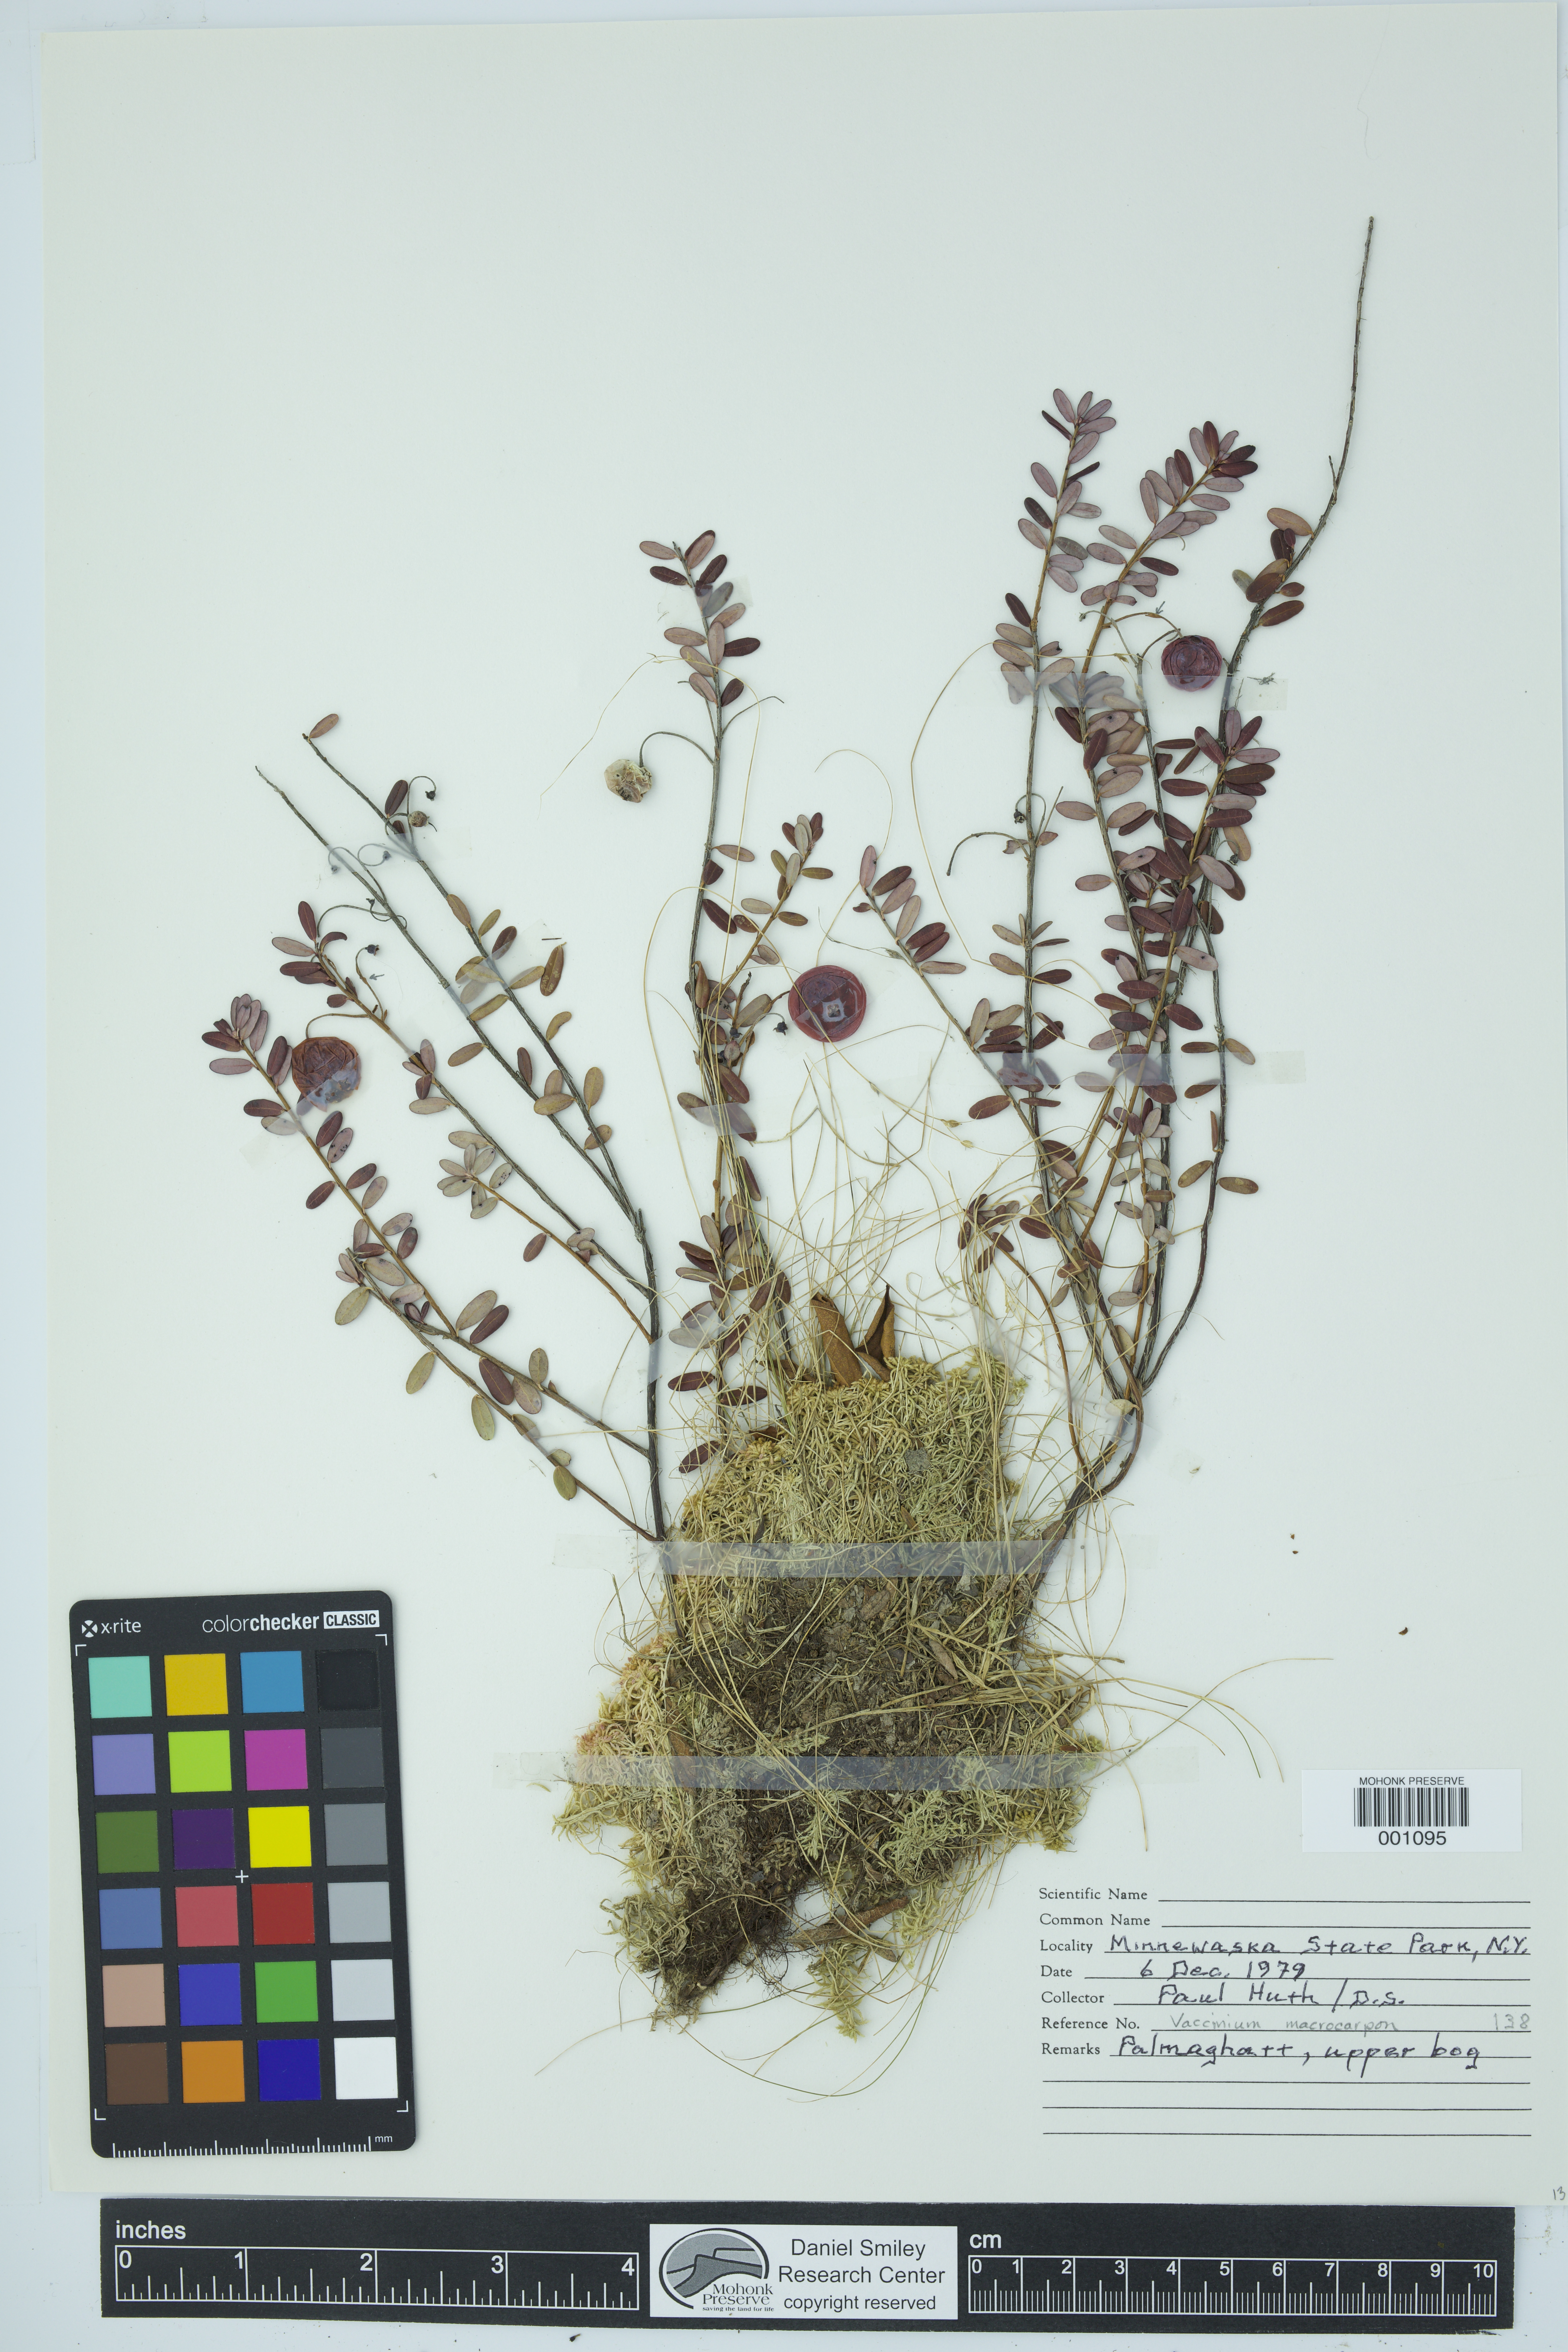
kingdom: Plantae
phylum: Tracheophyta
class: Magnoliopsida
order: Ericales
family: Ericaceae
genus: Vaccinium
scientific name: Vaccinium macrocarpon
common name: American cranberry
